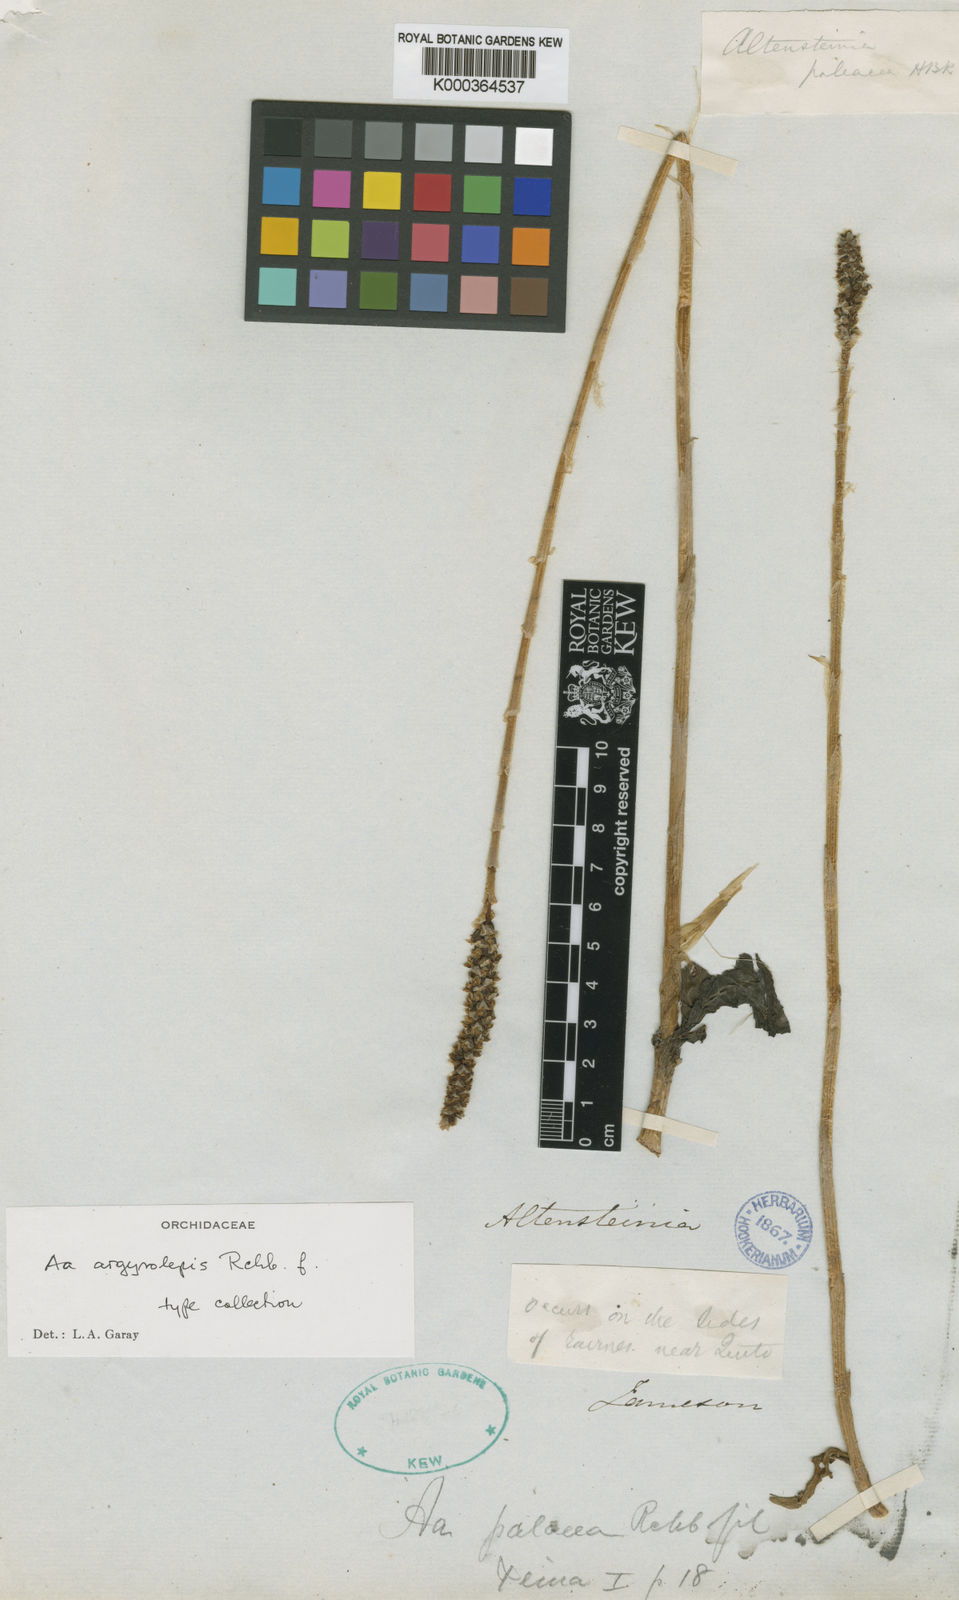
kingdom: Plantae
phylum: Tracheophyta
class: Liliopsida
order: Asparagales
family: Orchidaceae
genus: Aa
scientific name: Aa argyrolepis
